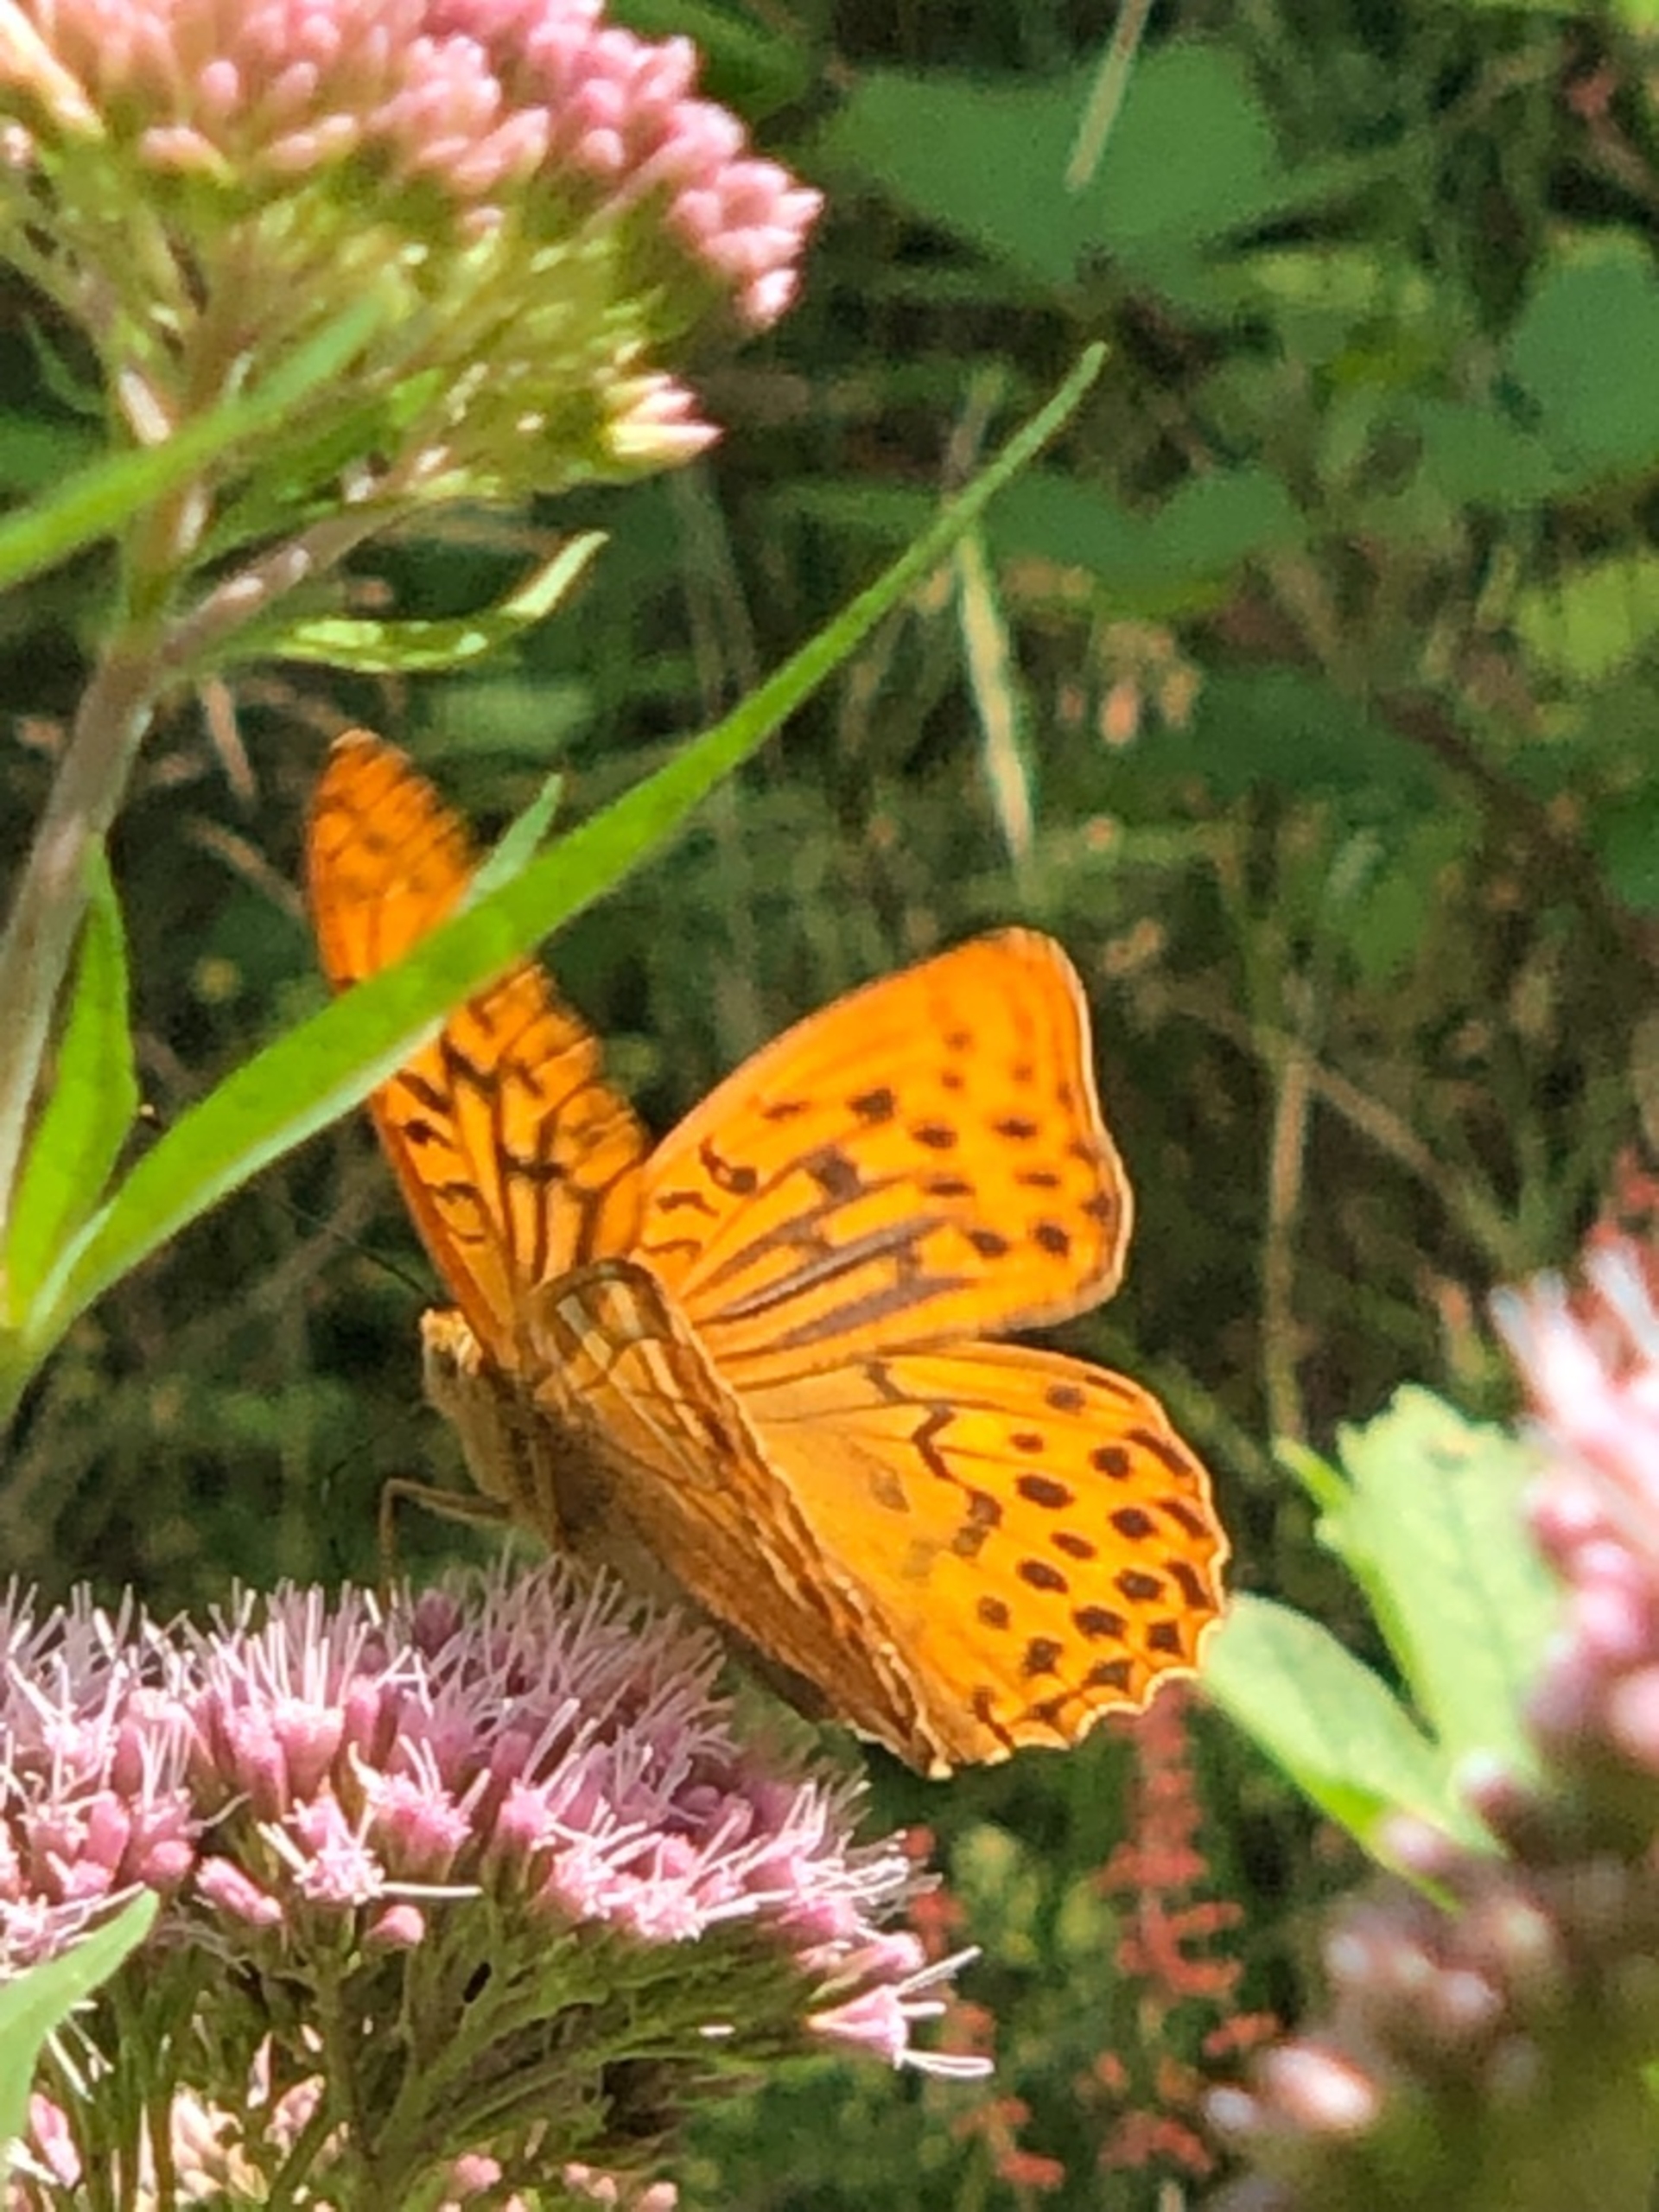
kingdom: Animalia
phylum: Arthropoda
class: Insecta
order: Lepidoptera
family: Nymphalidae
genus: Argynnis
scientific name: Argynnis paphia
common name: Kejserkåbe
